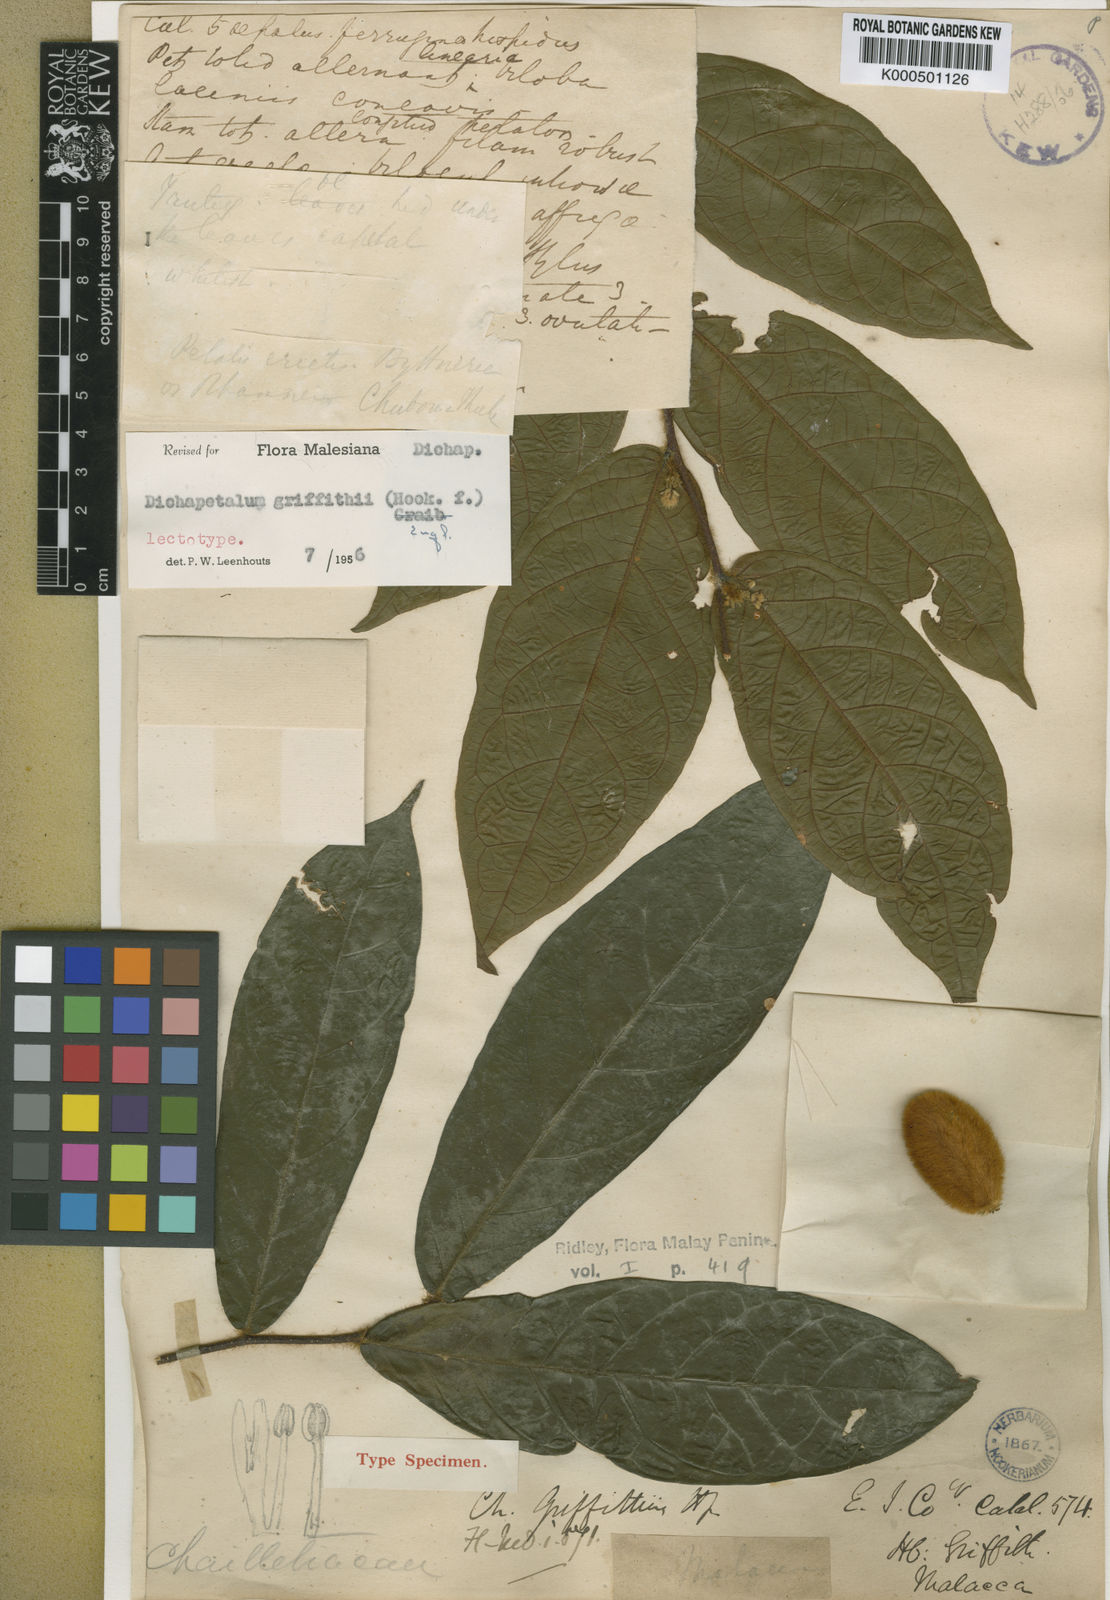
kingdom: Plantae
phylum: Tracheophyta
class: Magnoliopsida
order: Malpighiales
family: Dichapetalaceae
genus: Dichapetalum
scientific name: Dichapetalum griffithii
